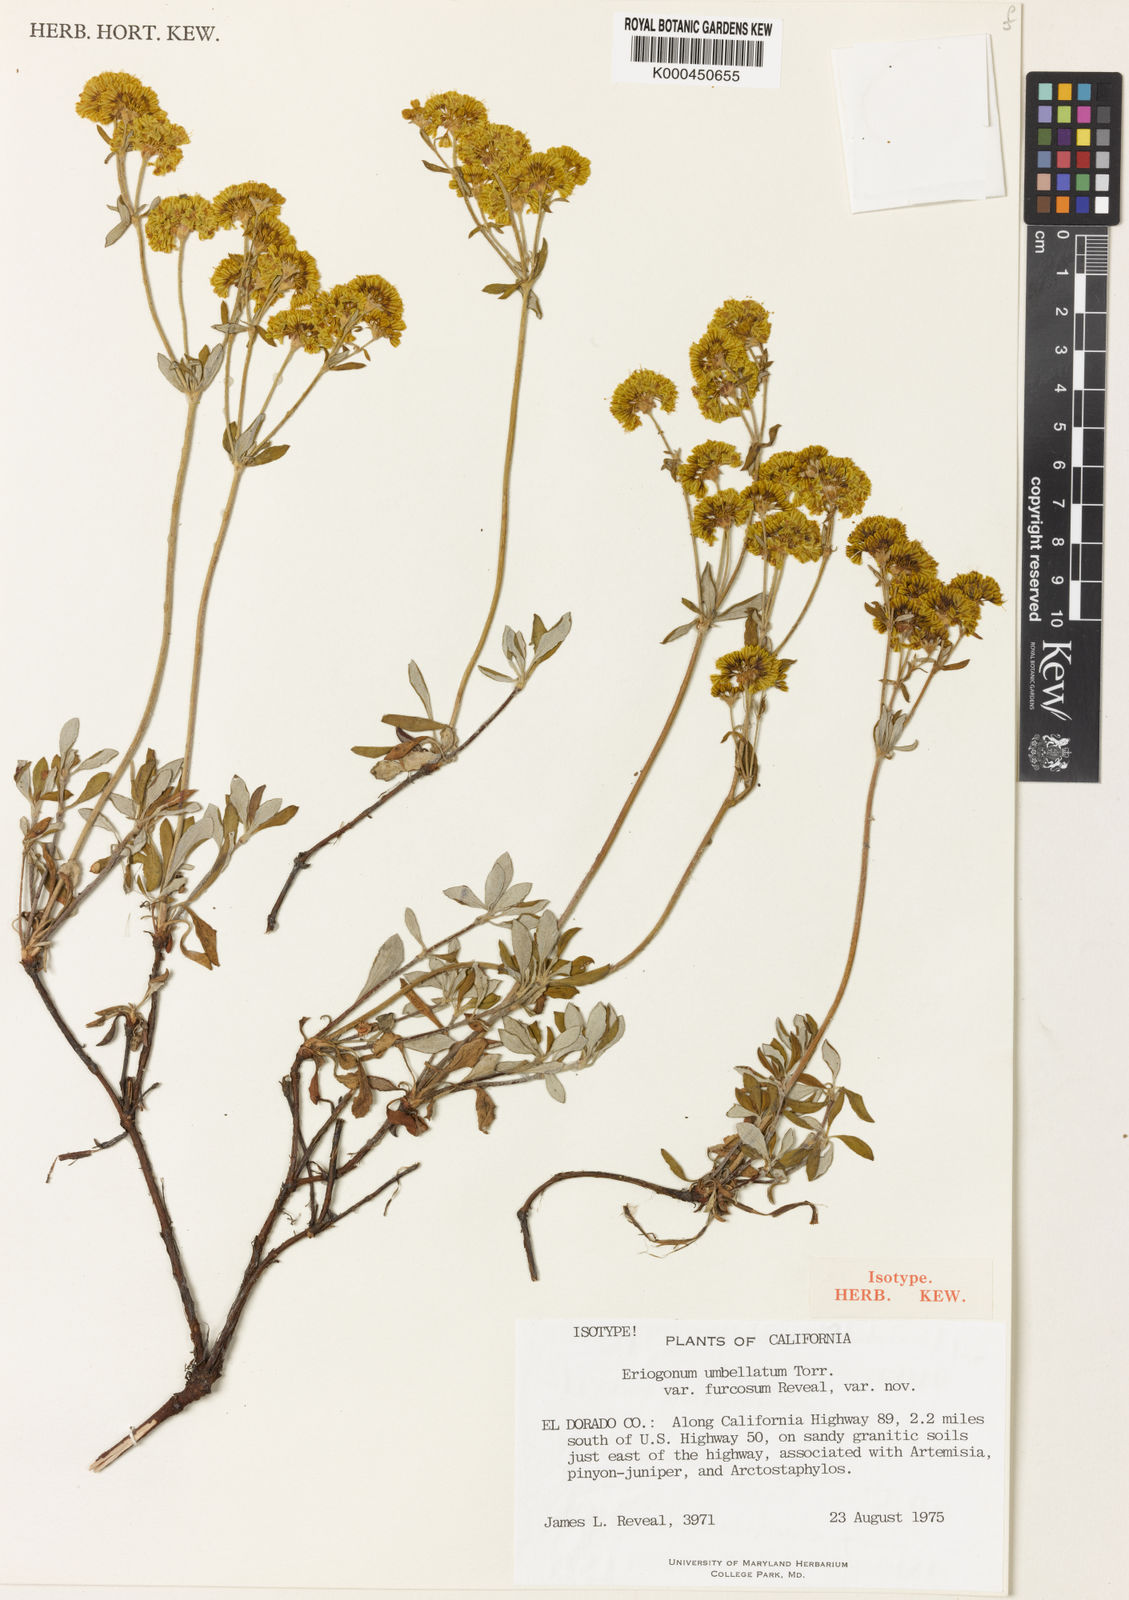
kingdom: Plantae
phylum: Tracheophyta
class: Magnoliopsida
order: Caryophyllales
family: Polygonaceae
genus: Eriogonum
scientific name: Eriogonum umbellatum
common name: Sulfur-buckwheat
